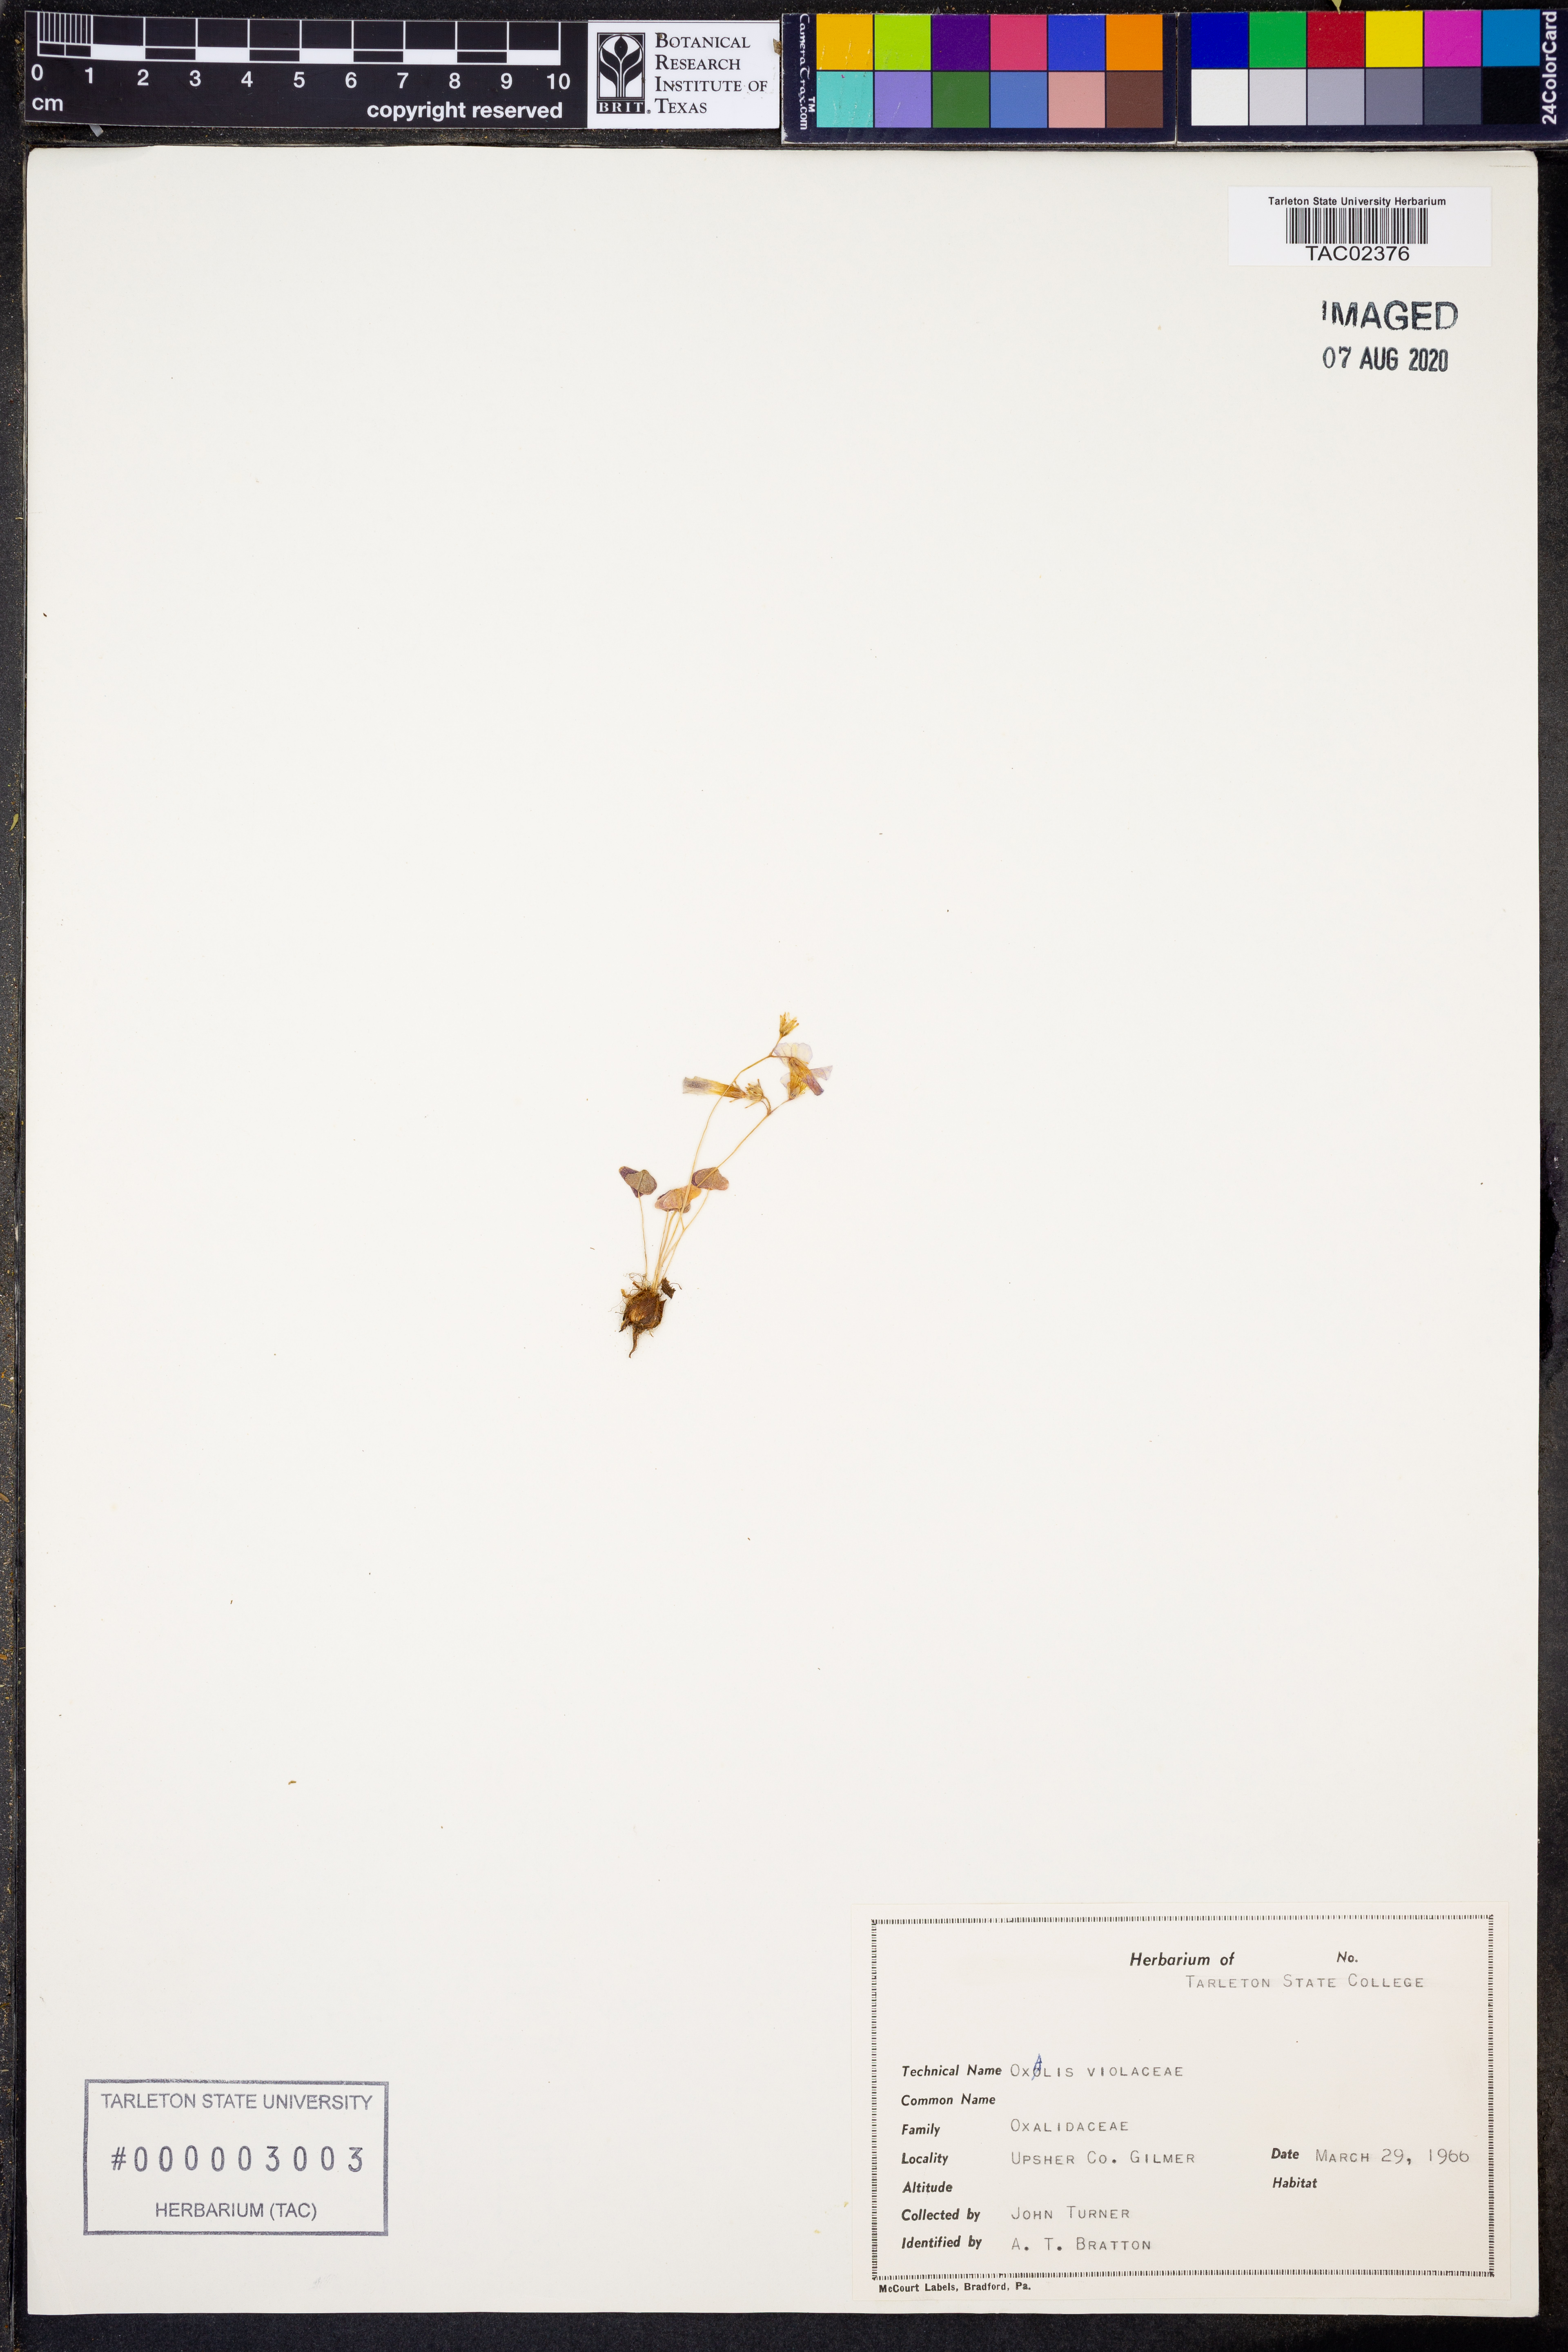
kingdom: Plantae
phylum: Tracheophyta
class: Magnoliopsida
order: Oxalidales
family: Oxalidaceae
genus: Oxalis
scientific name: Oxalis violacea
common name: Violet wood-sorrel
